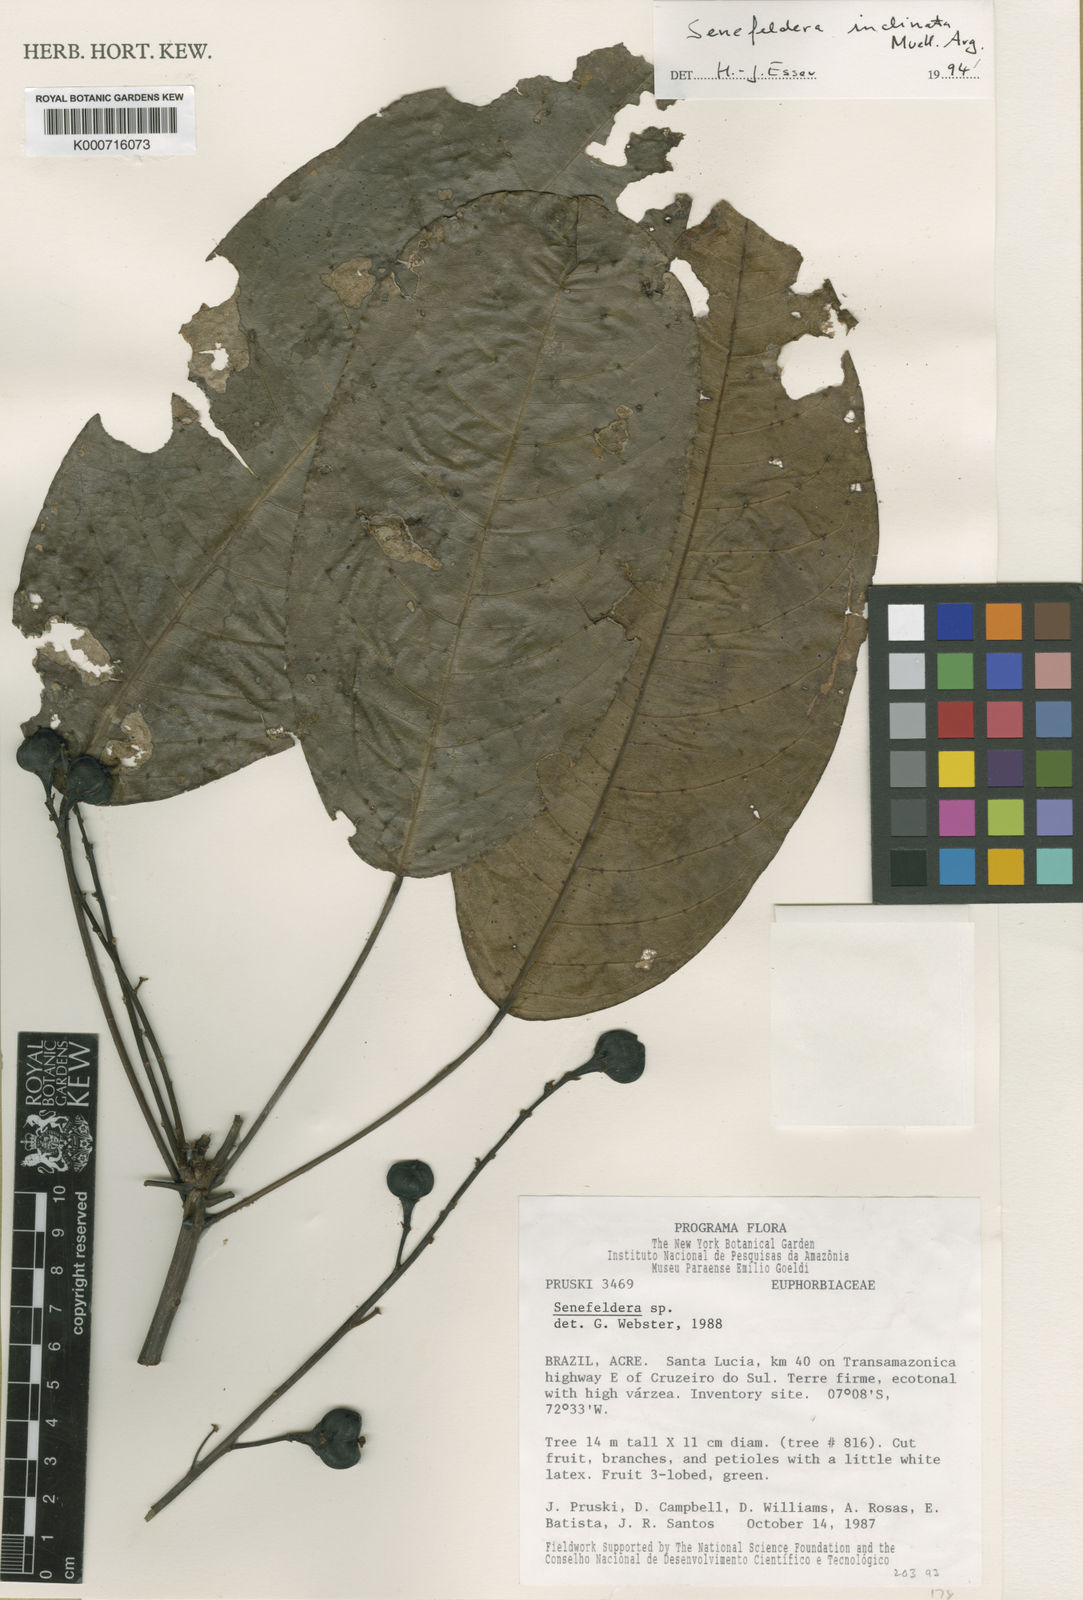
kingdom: Plantae
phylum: Tracheophyta
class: Magnoliopsida
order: Malpighiales
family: Euphorbiaceae
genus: Pseudosenefeldera
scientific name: Pseudosenefeldera
